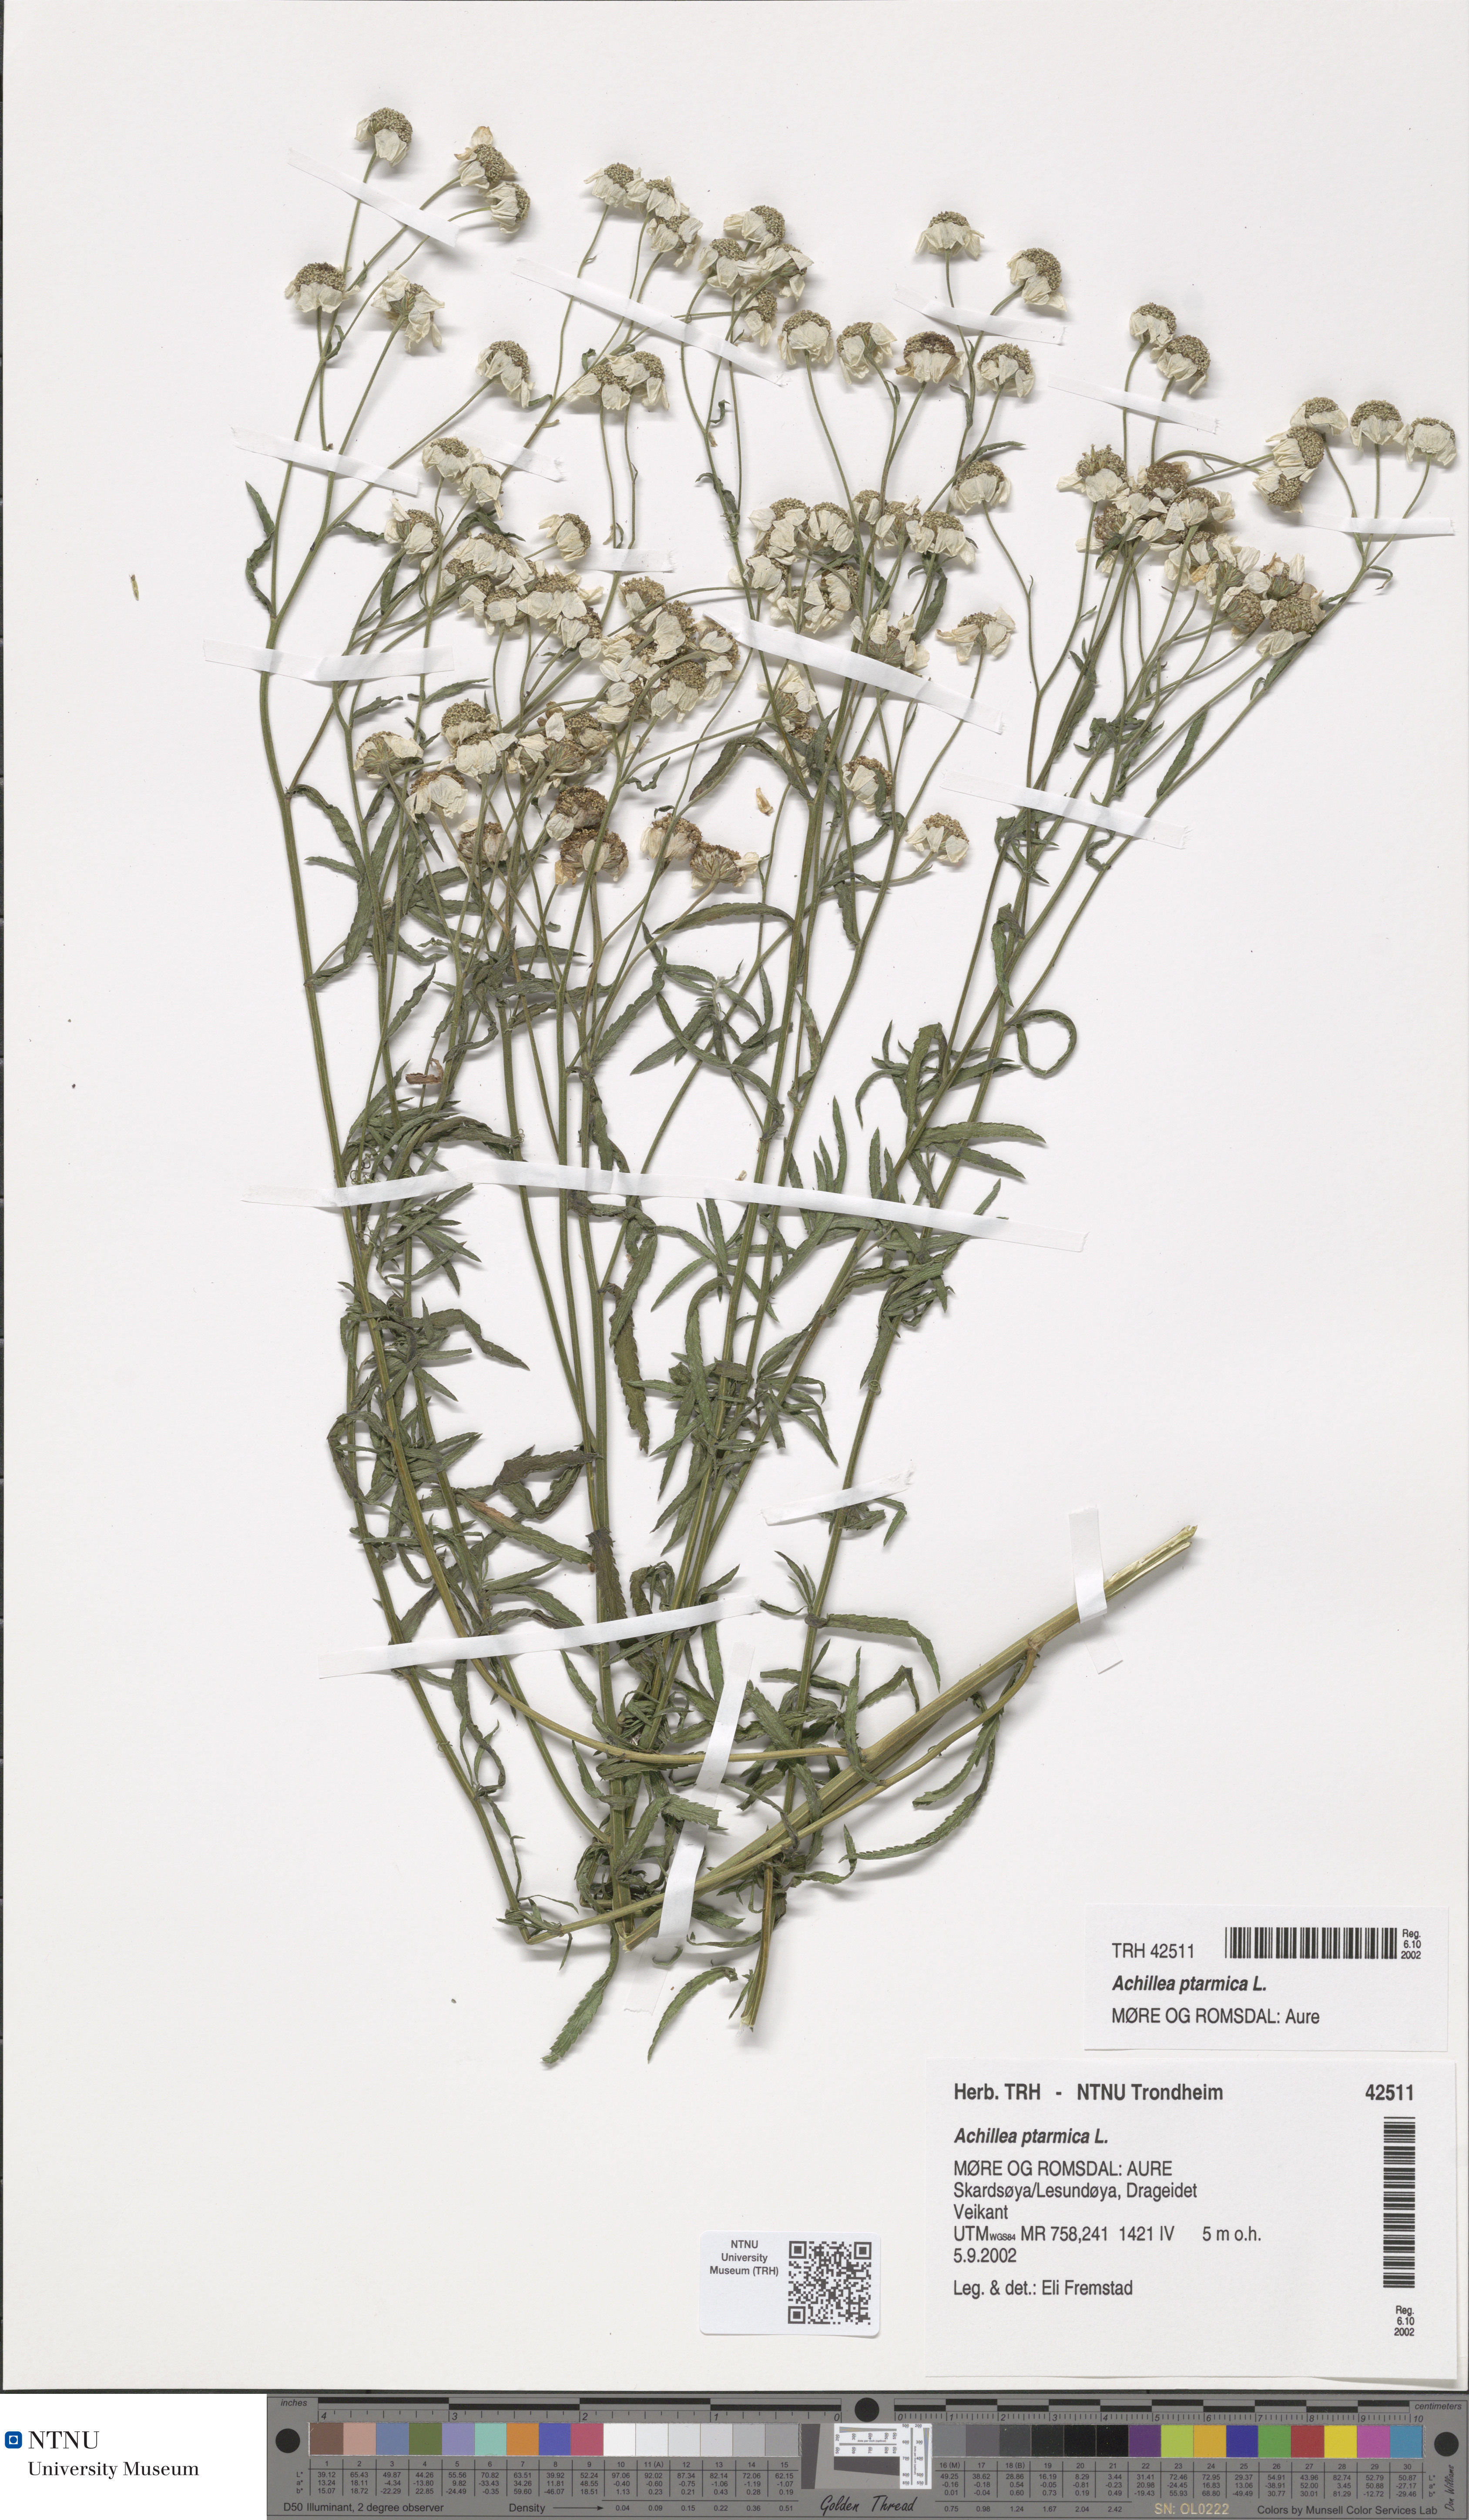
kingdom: Plantae
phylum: Tracheophyta
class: Magnoliopsida
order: Asterales
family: Asteraceae
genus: Achillea
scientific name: Achillea ptarmica
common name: Sneezeweed
